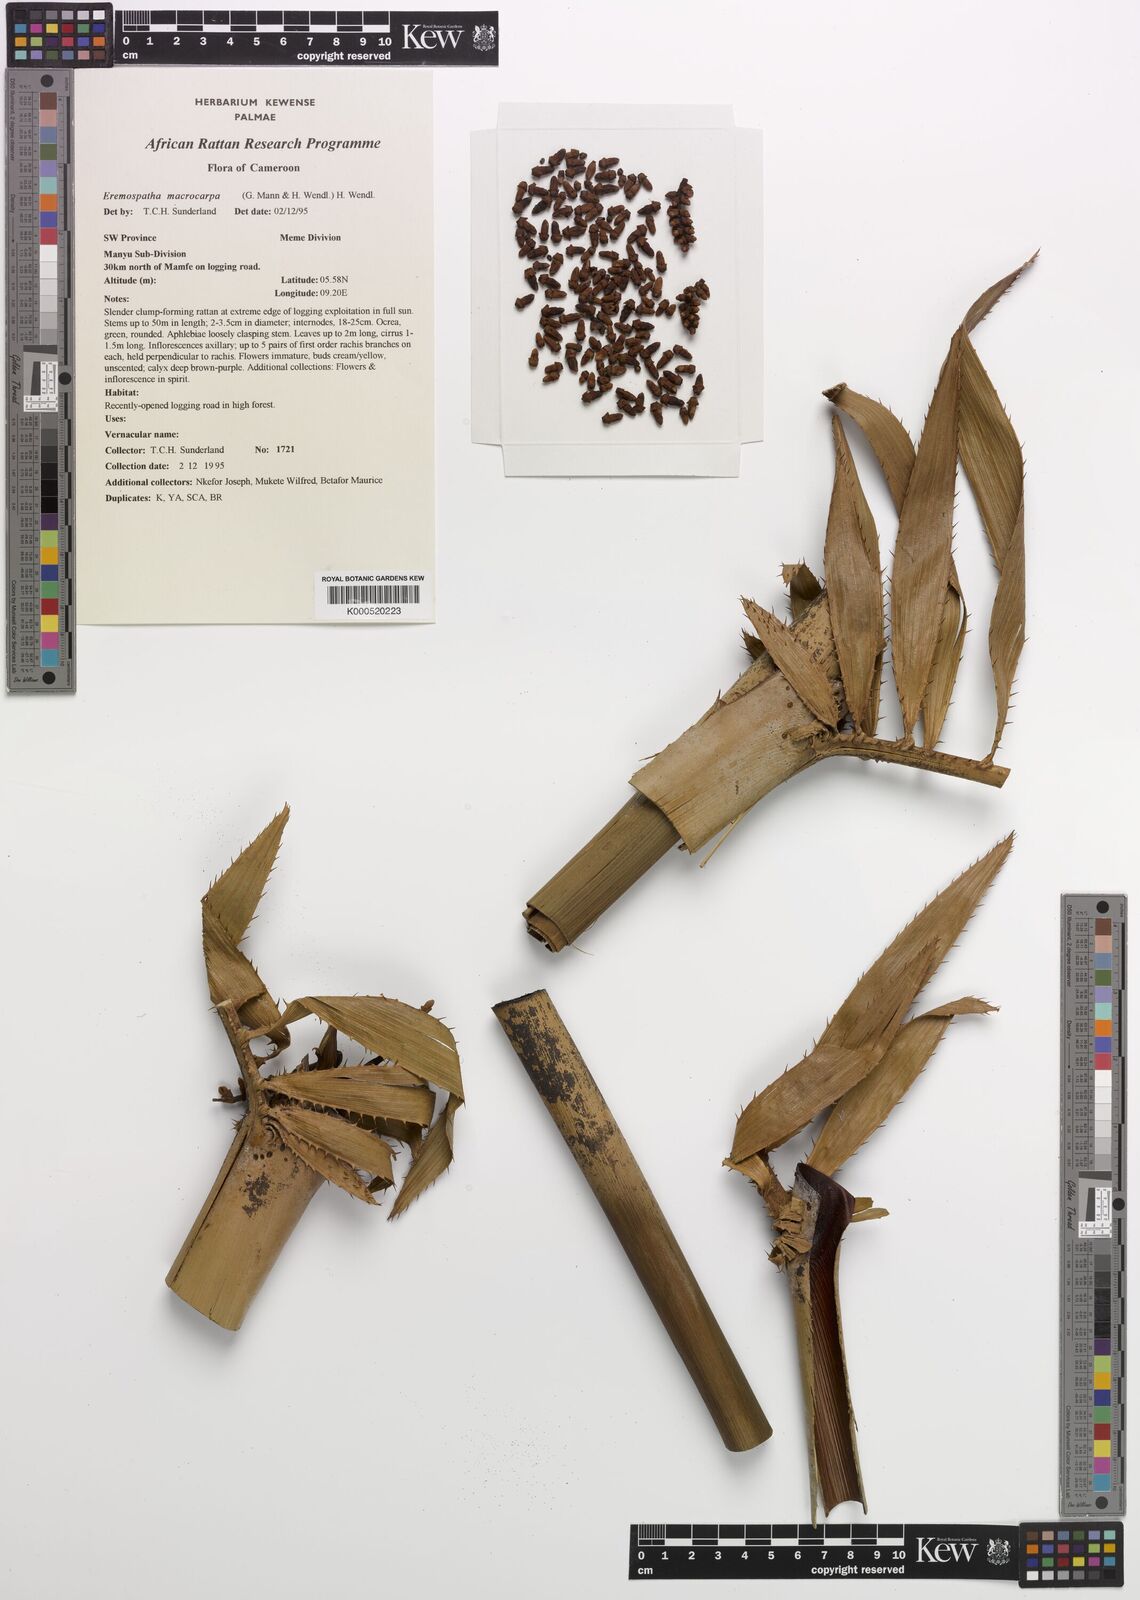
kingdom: Plantae
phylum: Tracheophyta
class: Liliopsida
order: Arecales
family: Arecaceae
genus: Eremospatha
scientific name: Eremospatha
